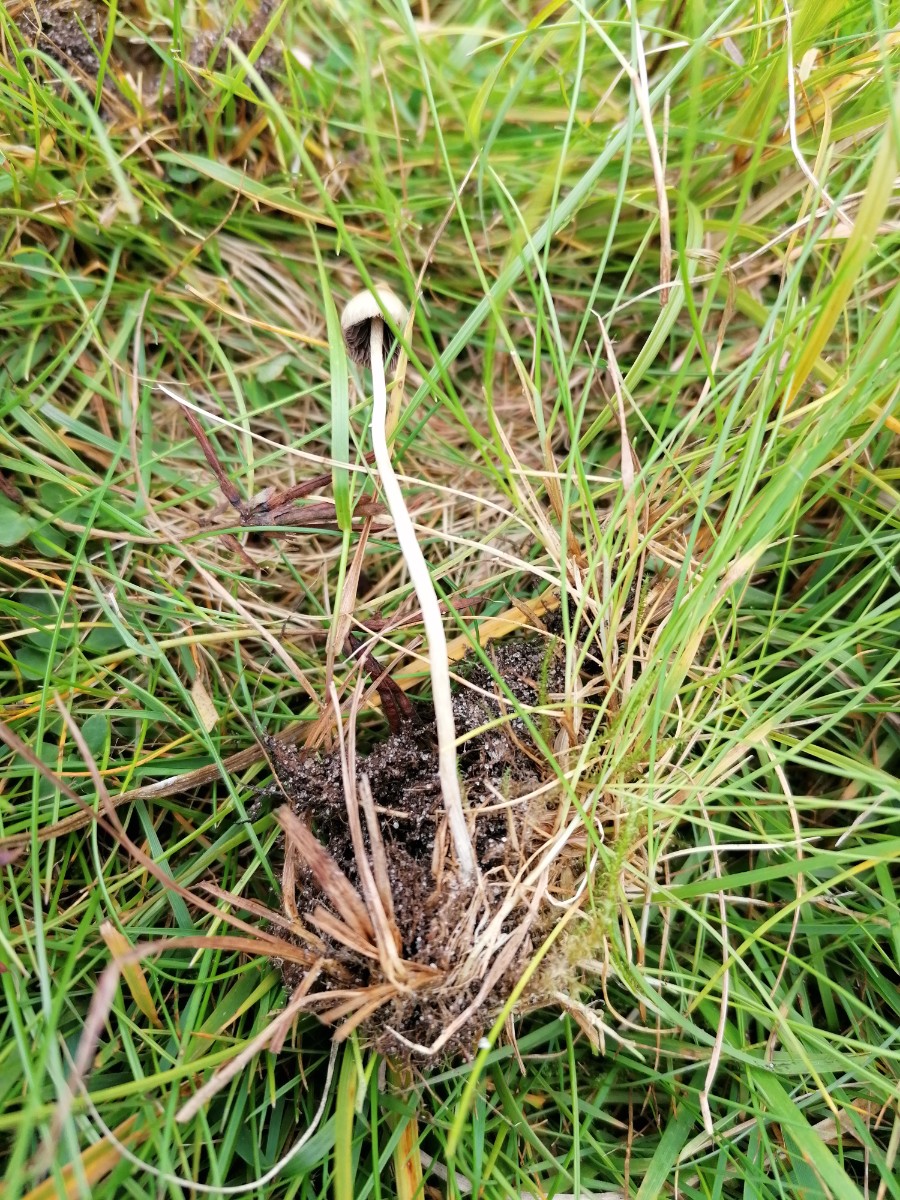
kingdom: Fungi
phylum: Basidiomycota
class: Agaricomycetes
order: Agaricales
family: Hymenogastraceae
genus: Psilocybe
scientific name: Psilocybe semilanceata
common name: spids nøgenhat
